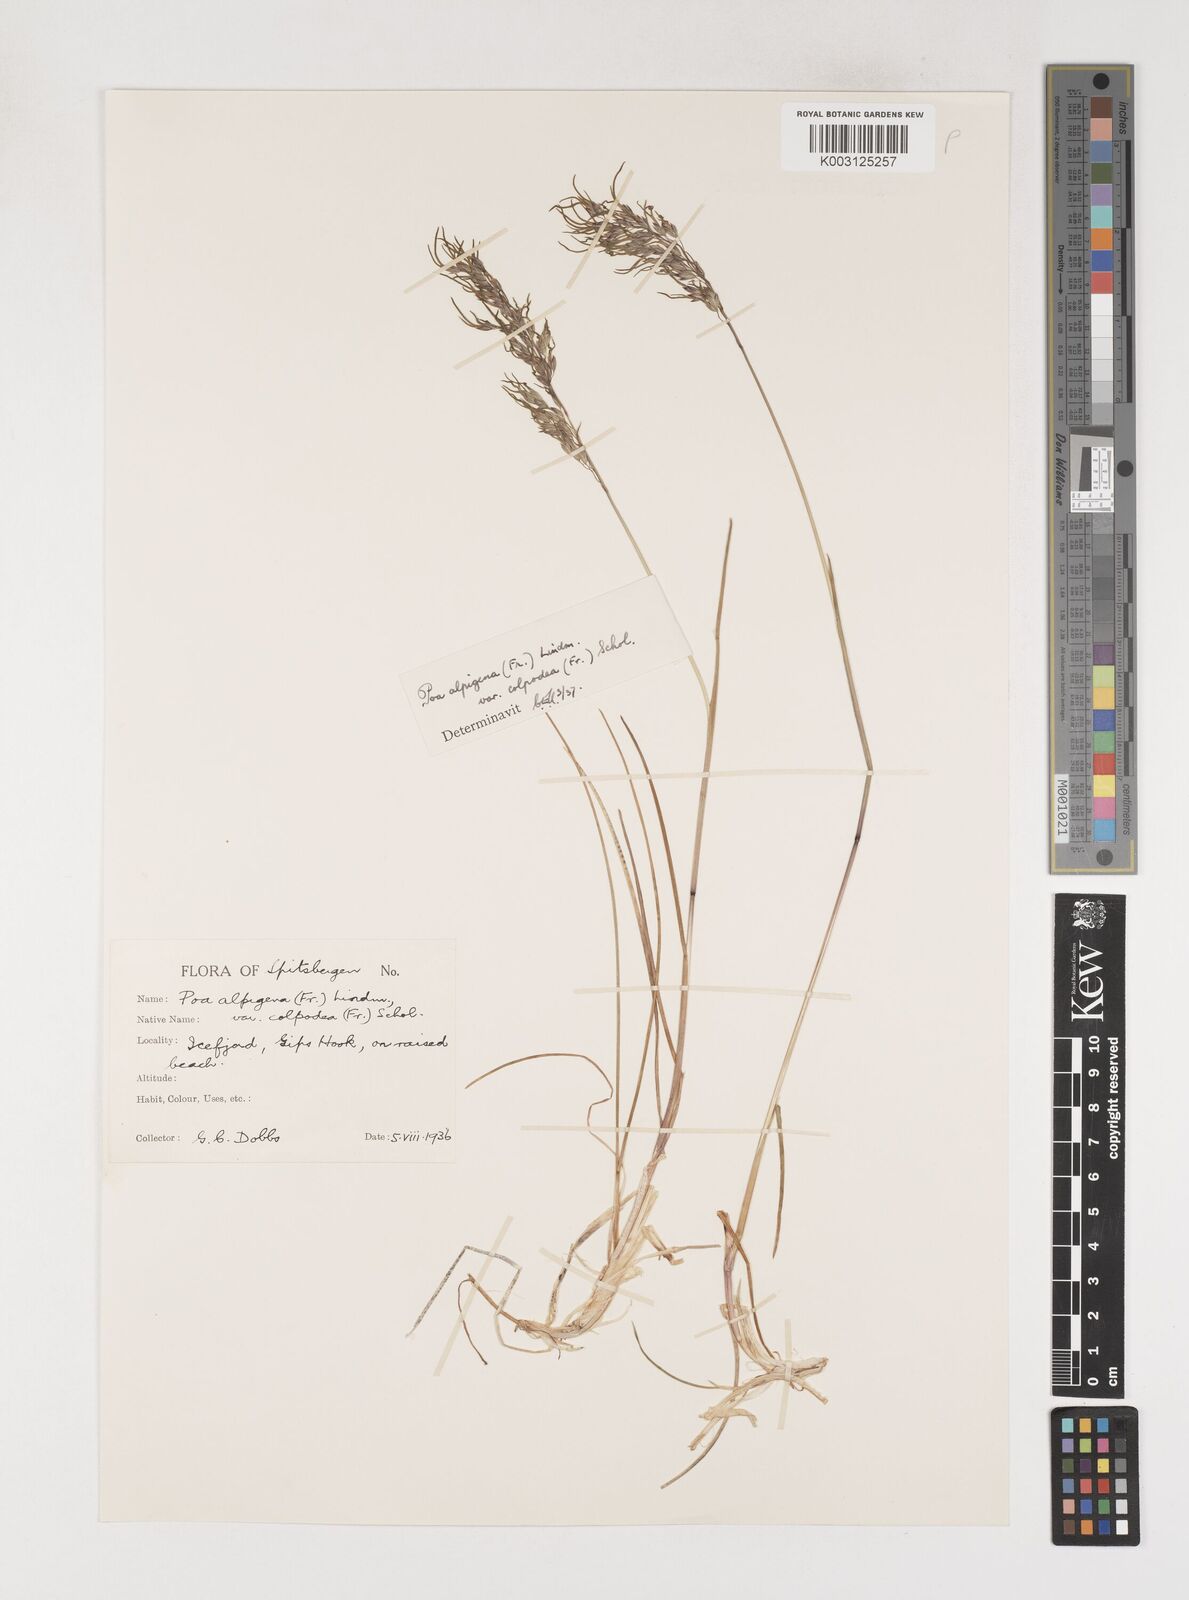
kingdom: Plantae
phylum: Tracheophyta
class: Liliopsida
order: Poales
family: Poaceae
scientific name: Poaceae
